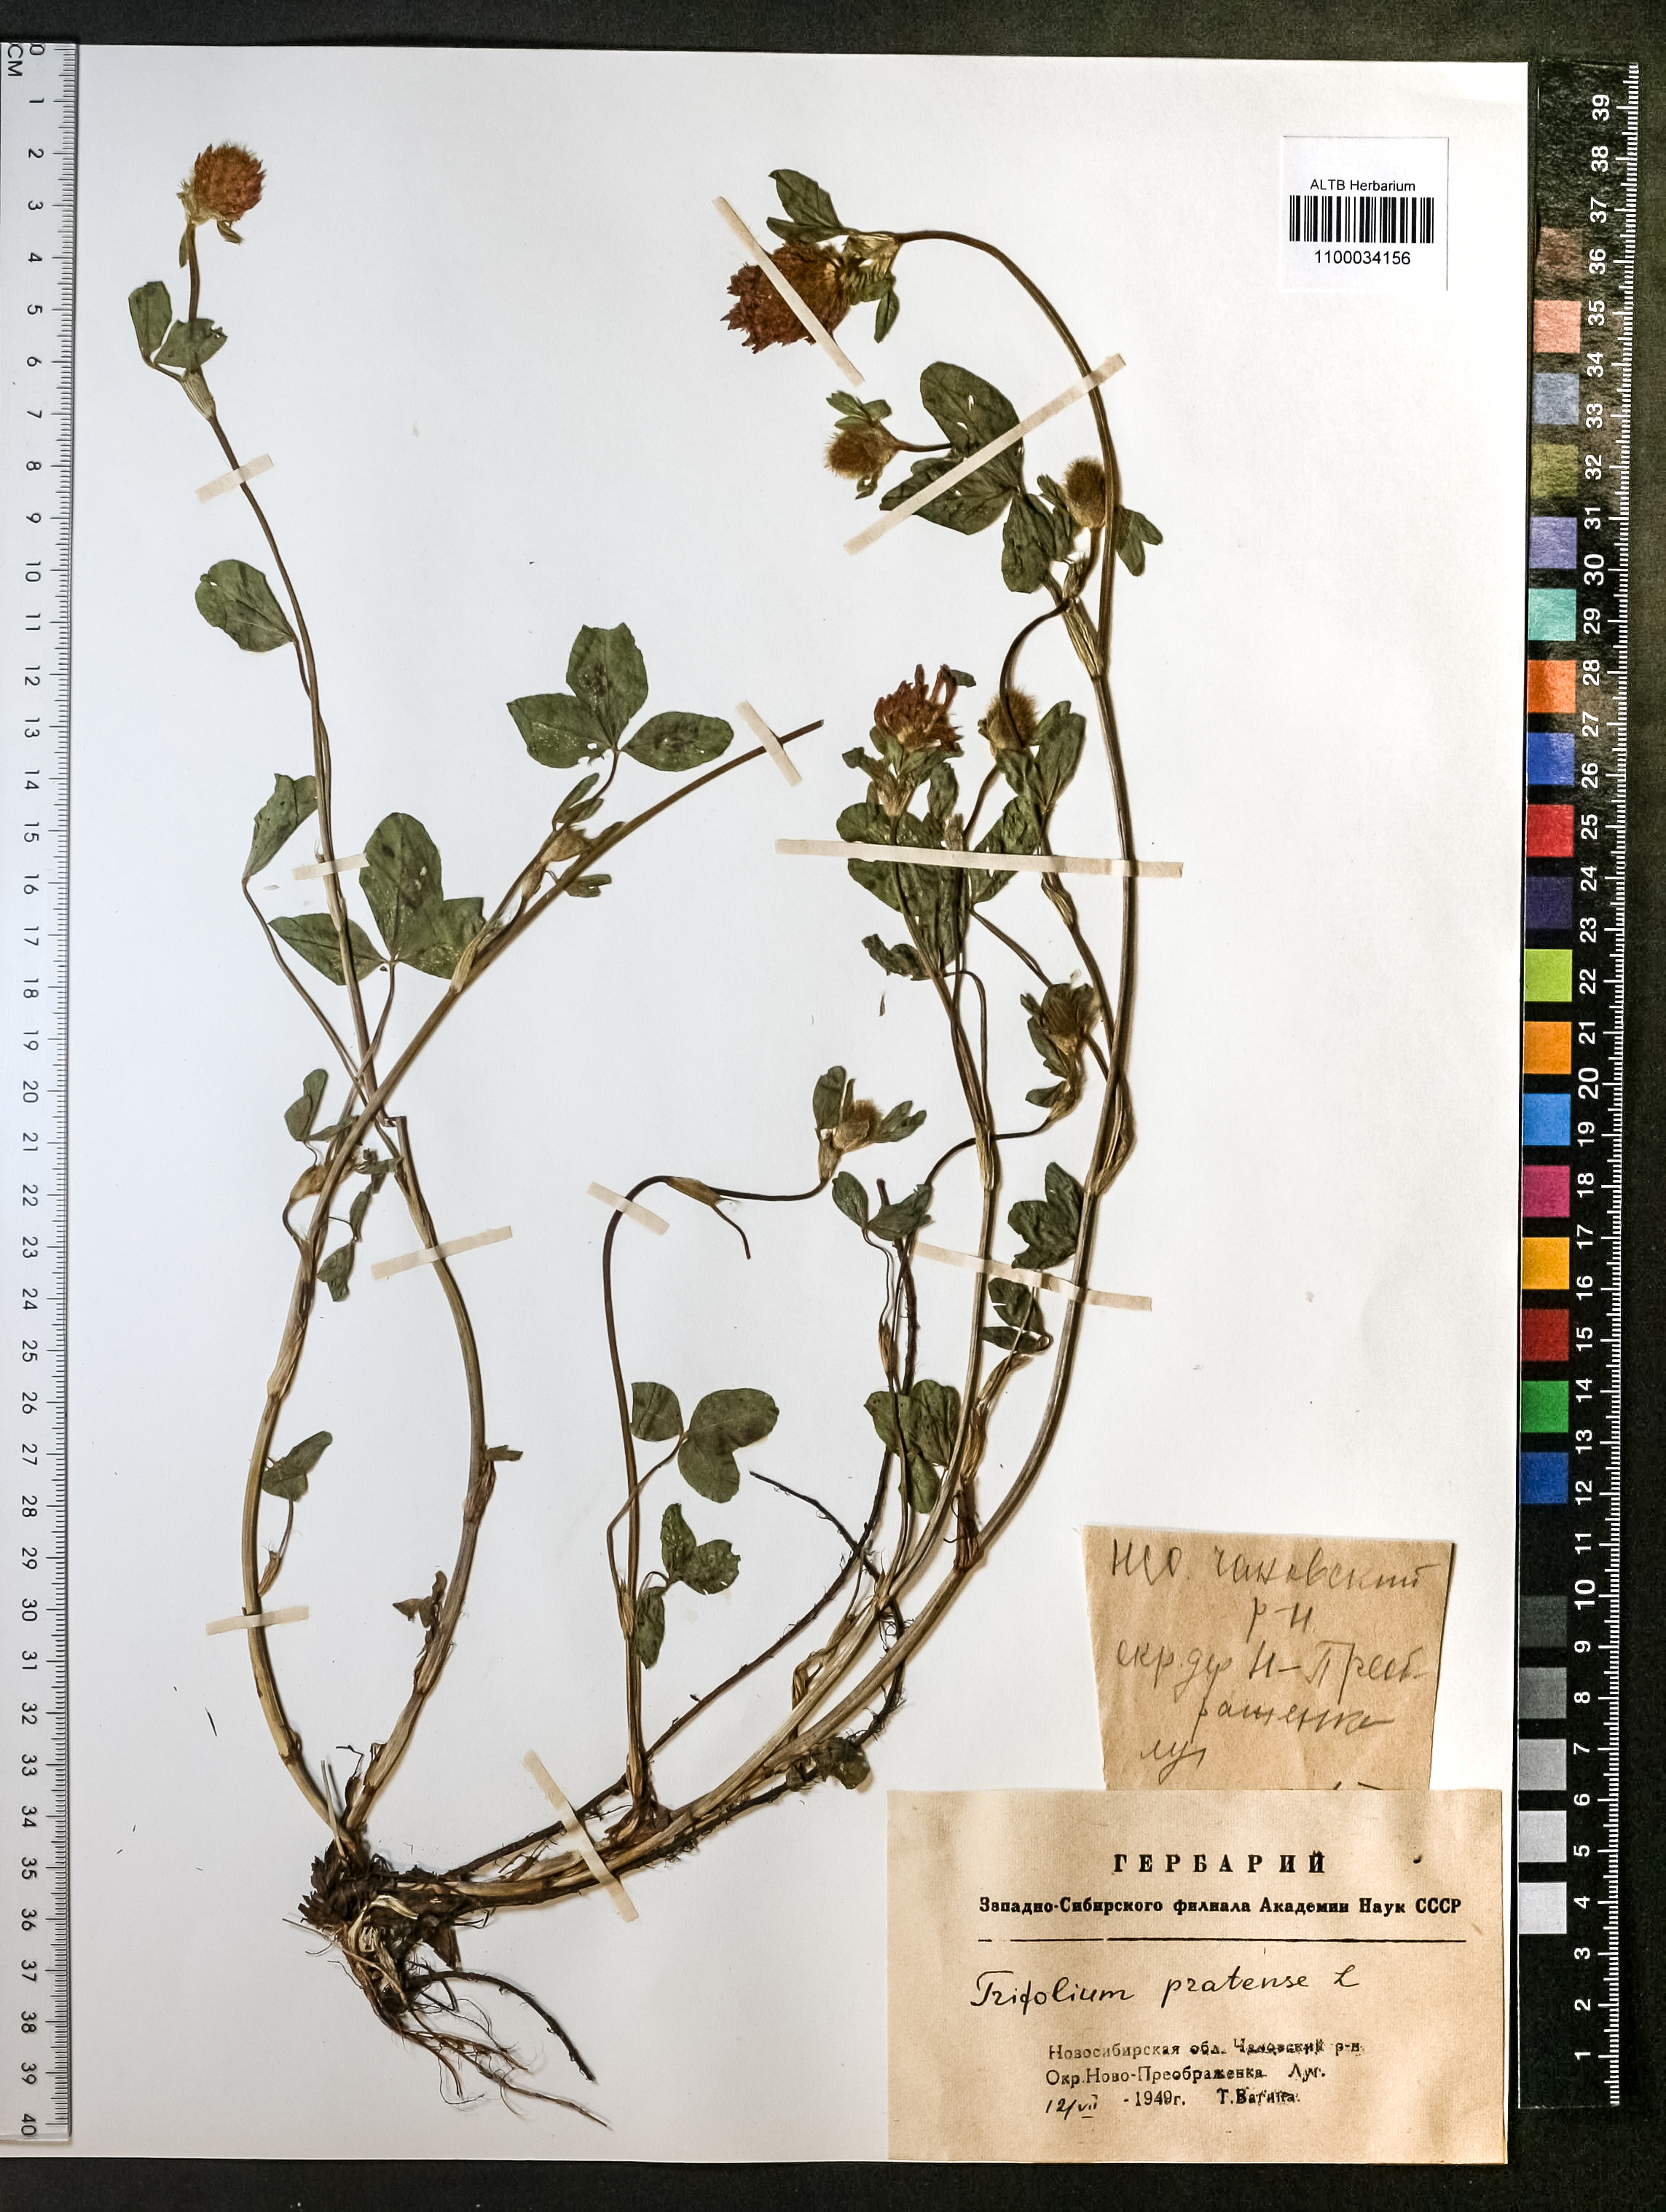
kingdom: Plantae
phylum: Tracheophyta
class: Magnoliopsida
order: Fabales
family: Fabaceae
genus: Trifolium
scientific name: Trifolium pratense
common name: Red clover
